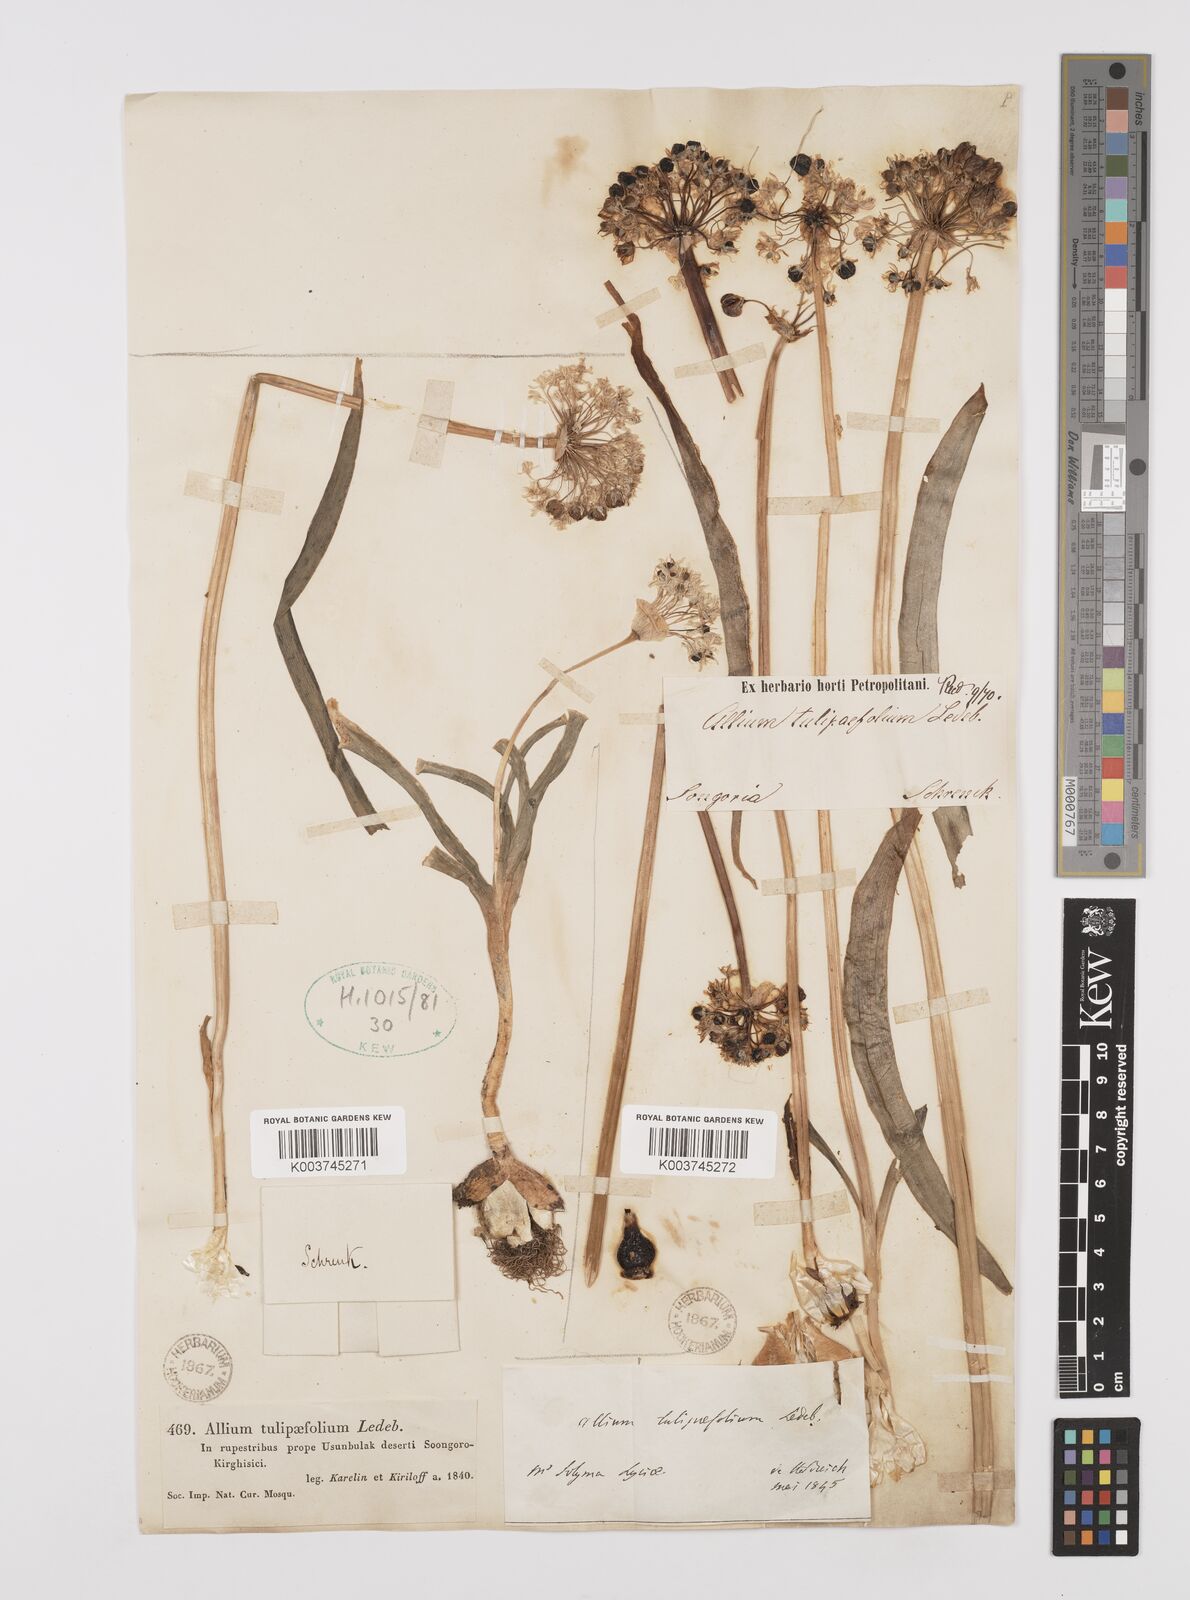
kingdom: Plantae
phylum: Tracheophyta
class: Liliopsida
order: Asparagales
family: Amaryllidaceae
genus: Allium
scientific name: Allium tulipifolium
